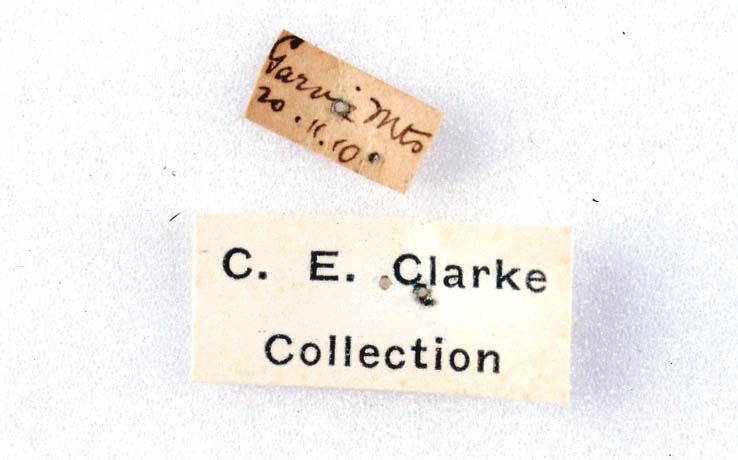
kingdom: Animalia
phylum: Arthropoda
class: Insecta
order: Lepidoptera
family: Noctuidae
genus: Ichneutica
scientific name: Ichneutica cana
